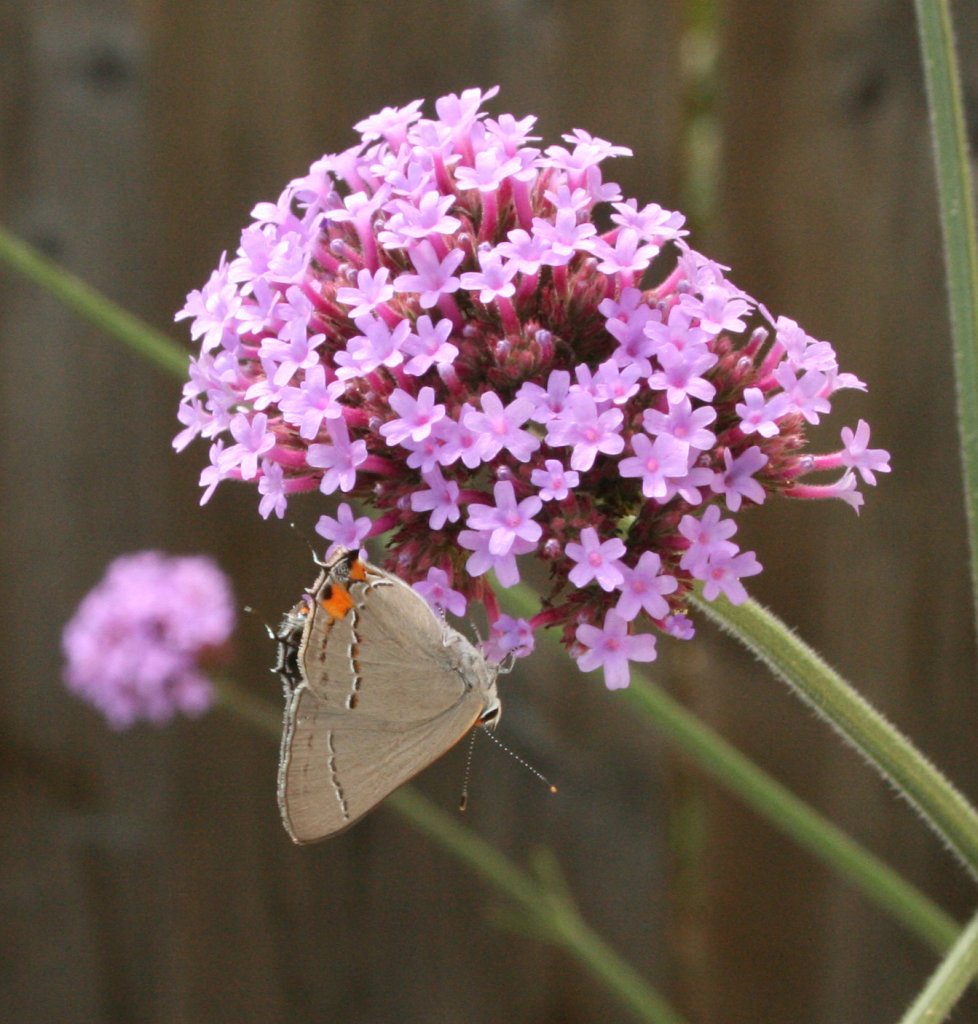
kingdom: Animalia
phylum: Arthropoda
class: Insecta
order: Lepidoptera
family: Lycaenidae
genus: Strymon
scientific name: Strymon melinus
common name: Gray Hairstreak
